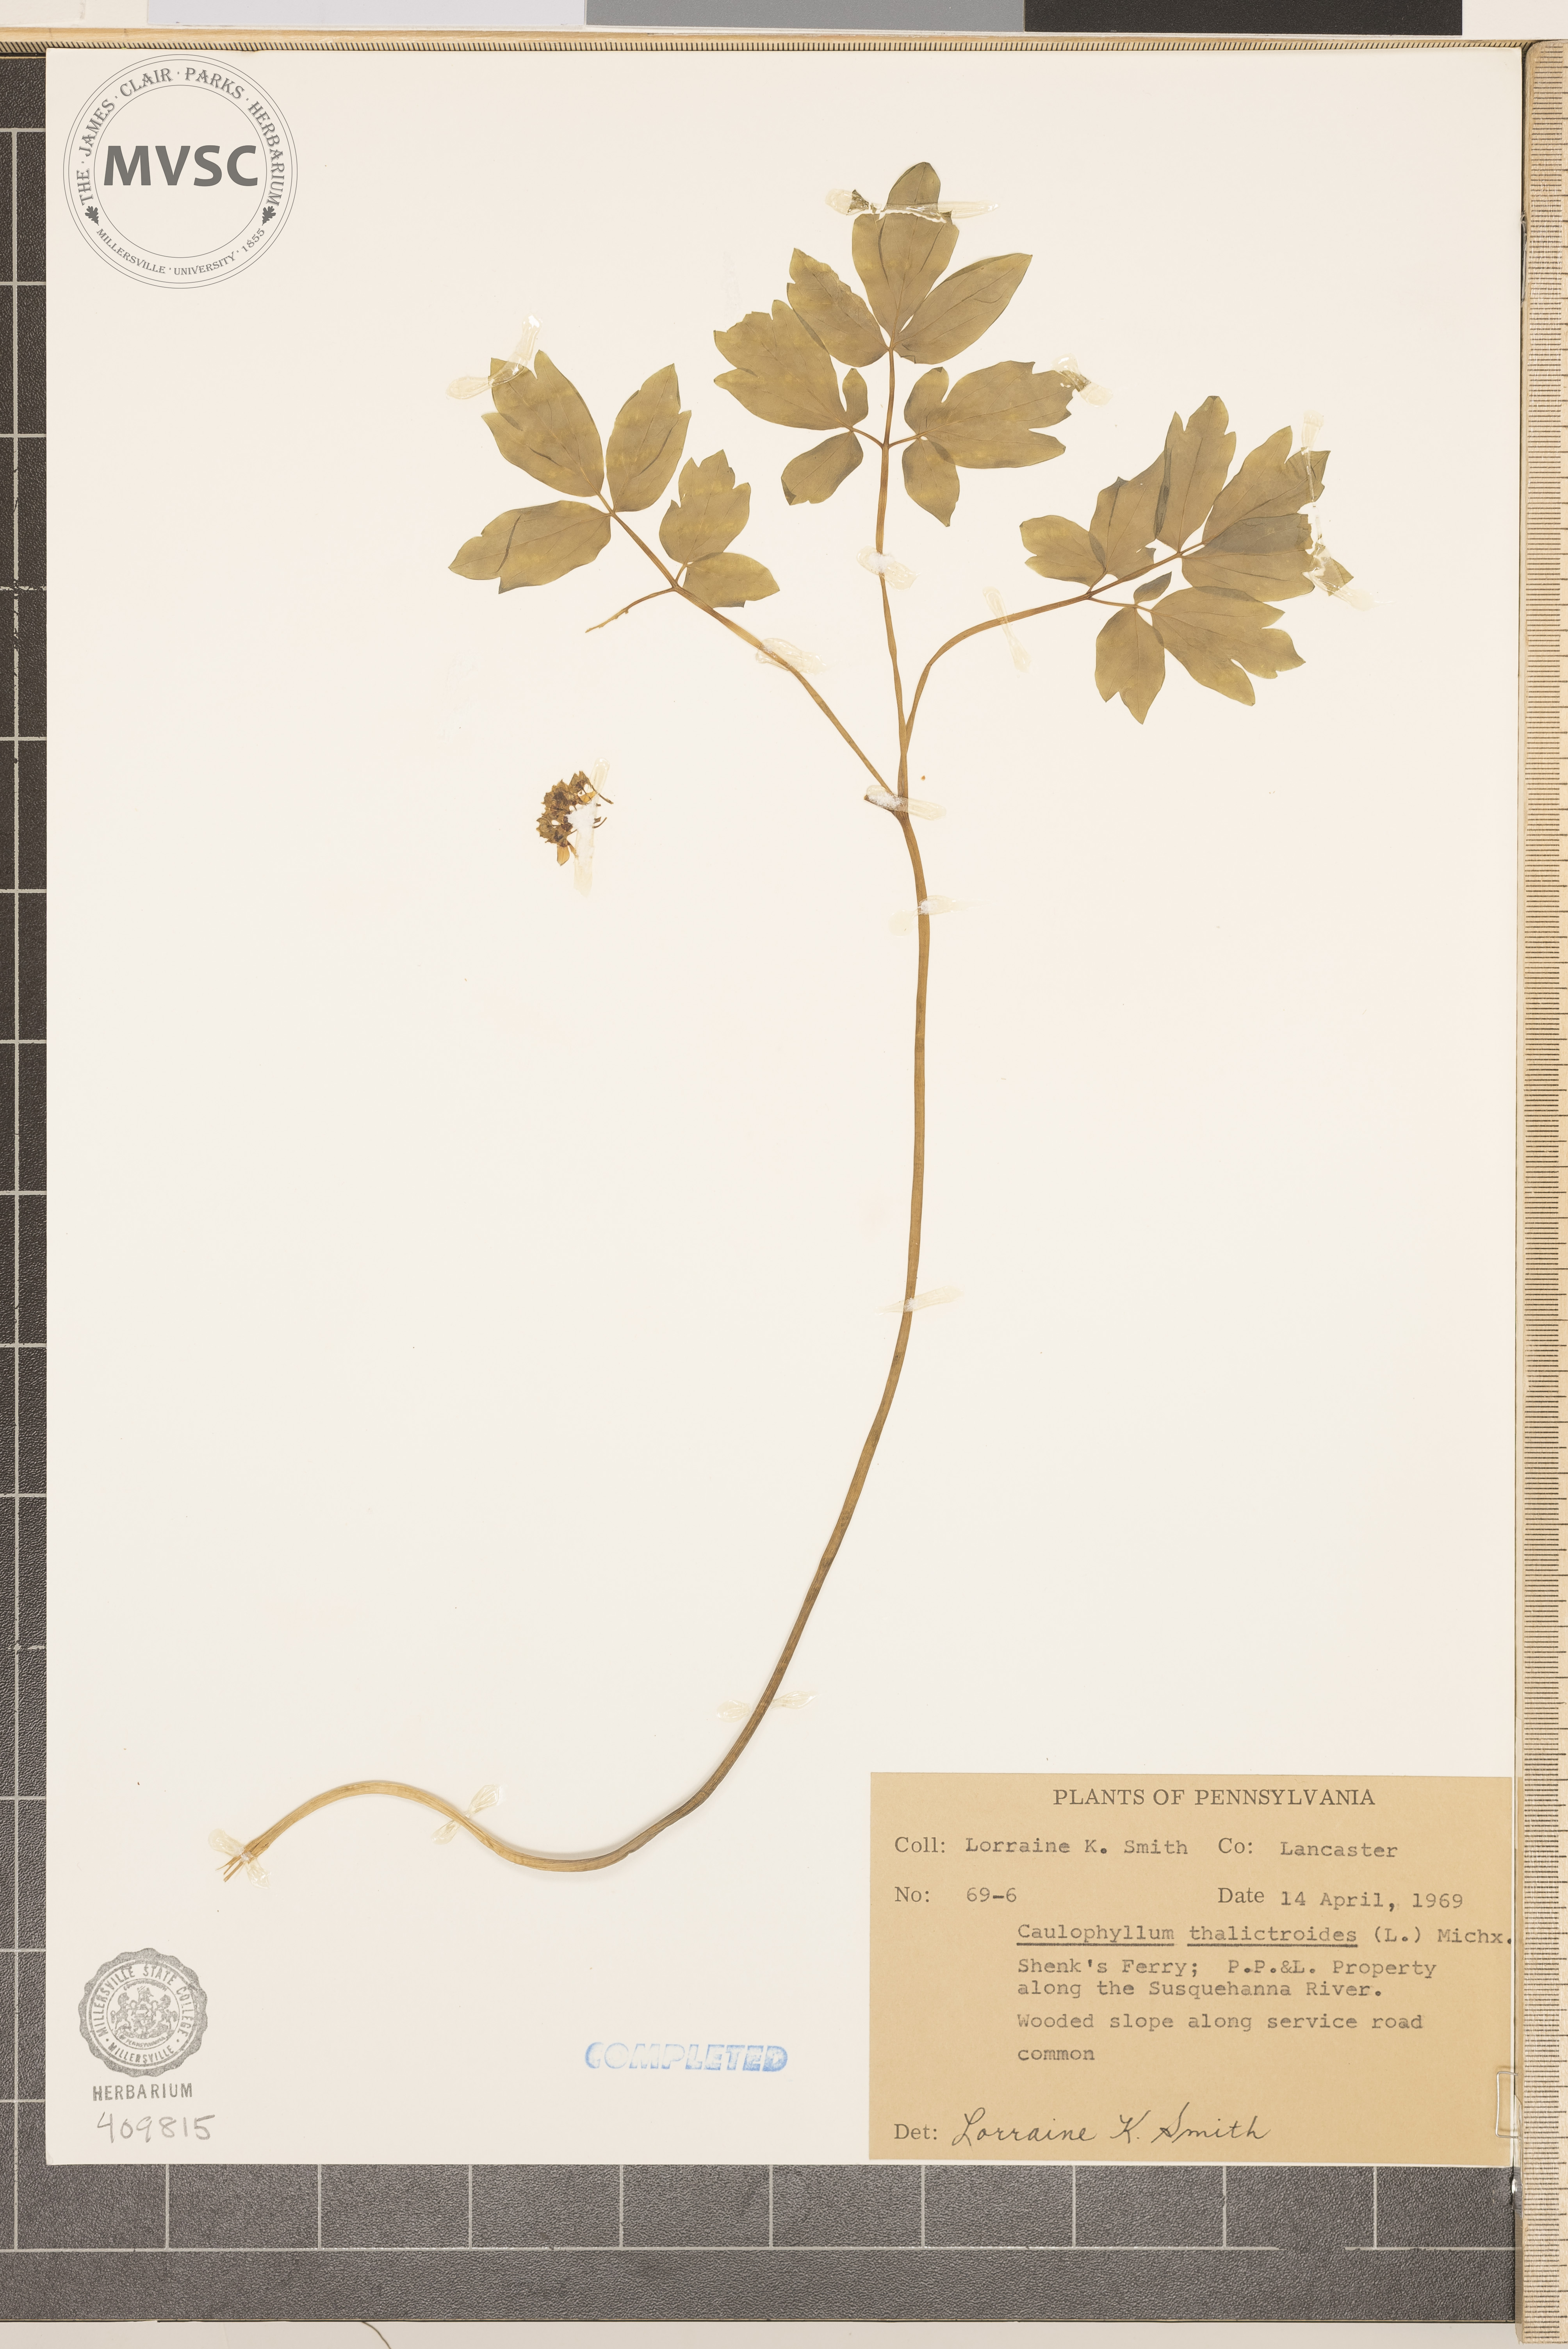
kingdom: Plantae
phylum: Tracheophyta
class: Magnoliopsida
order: Ranunculales
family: Berberidaceae
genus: Caulophyllum
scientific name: Caulophyllum thalictroides
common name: Blue cohosh
